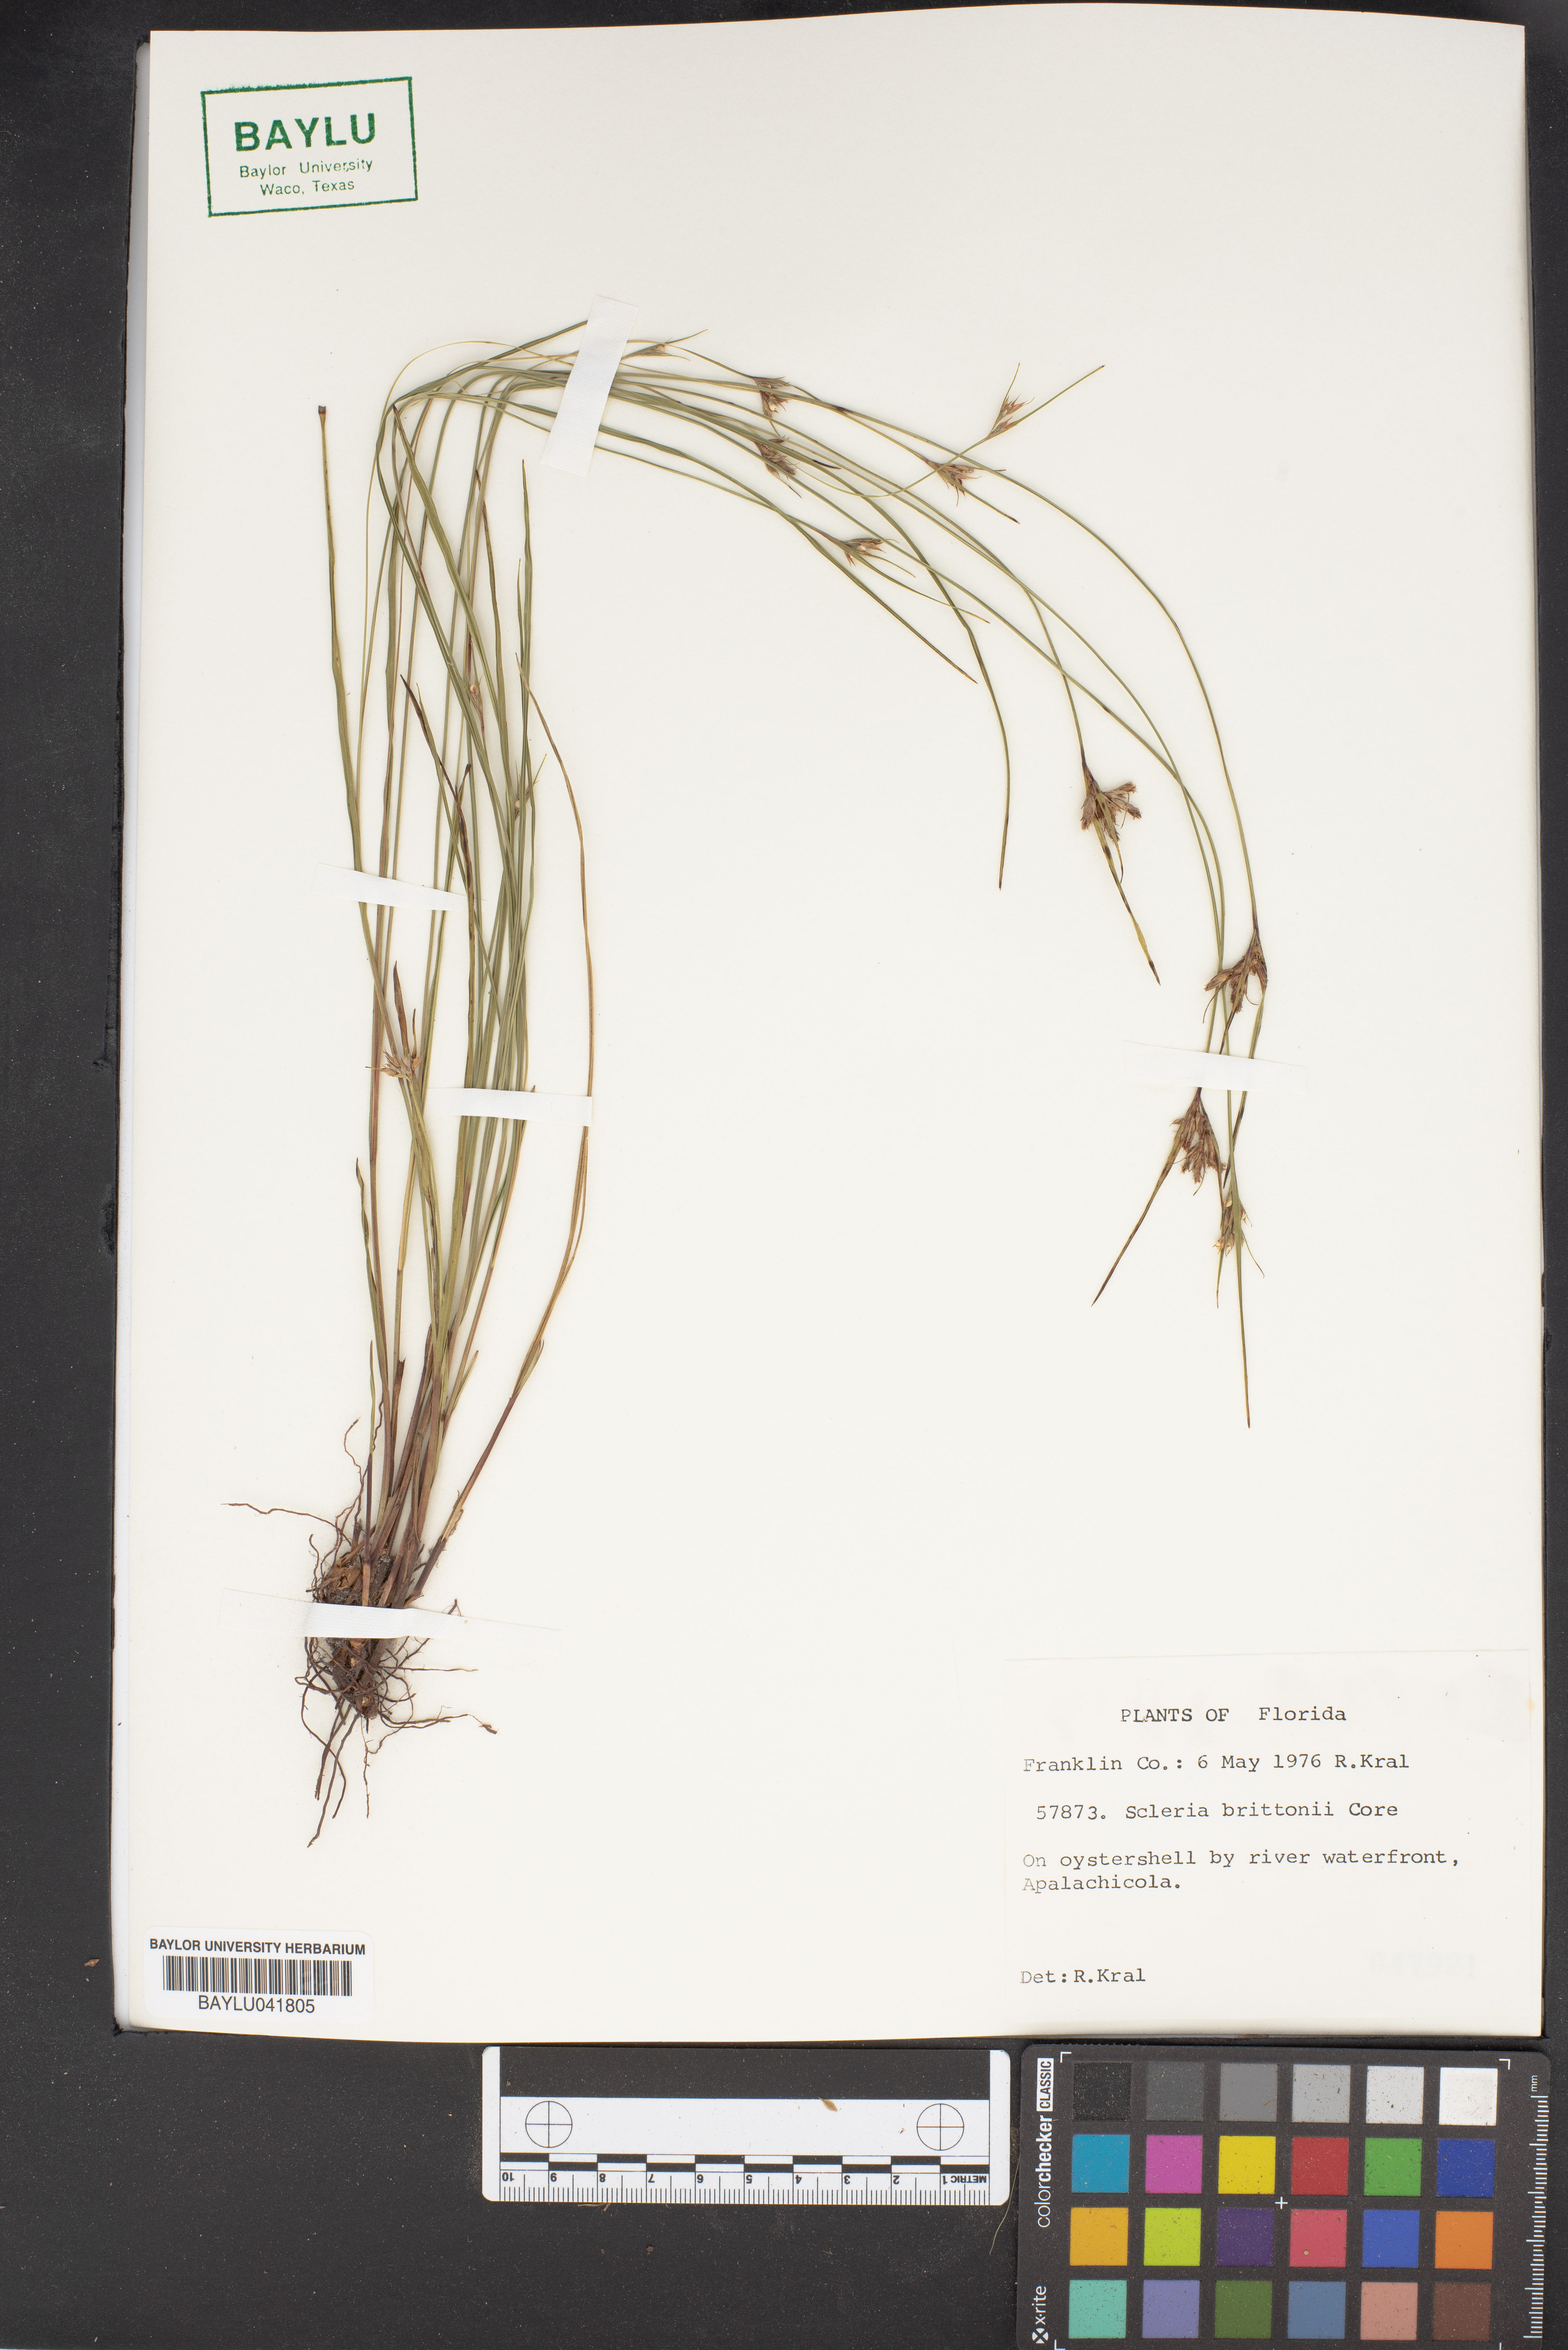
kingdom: Plantae
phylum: Tracheophyta
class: Liliopsida
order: Poales
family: Cyperaceae
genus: Scleria
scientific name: Scleria ciliata
